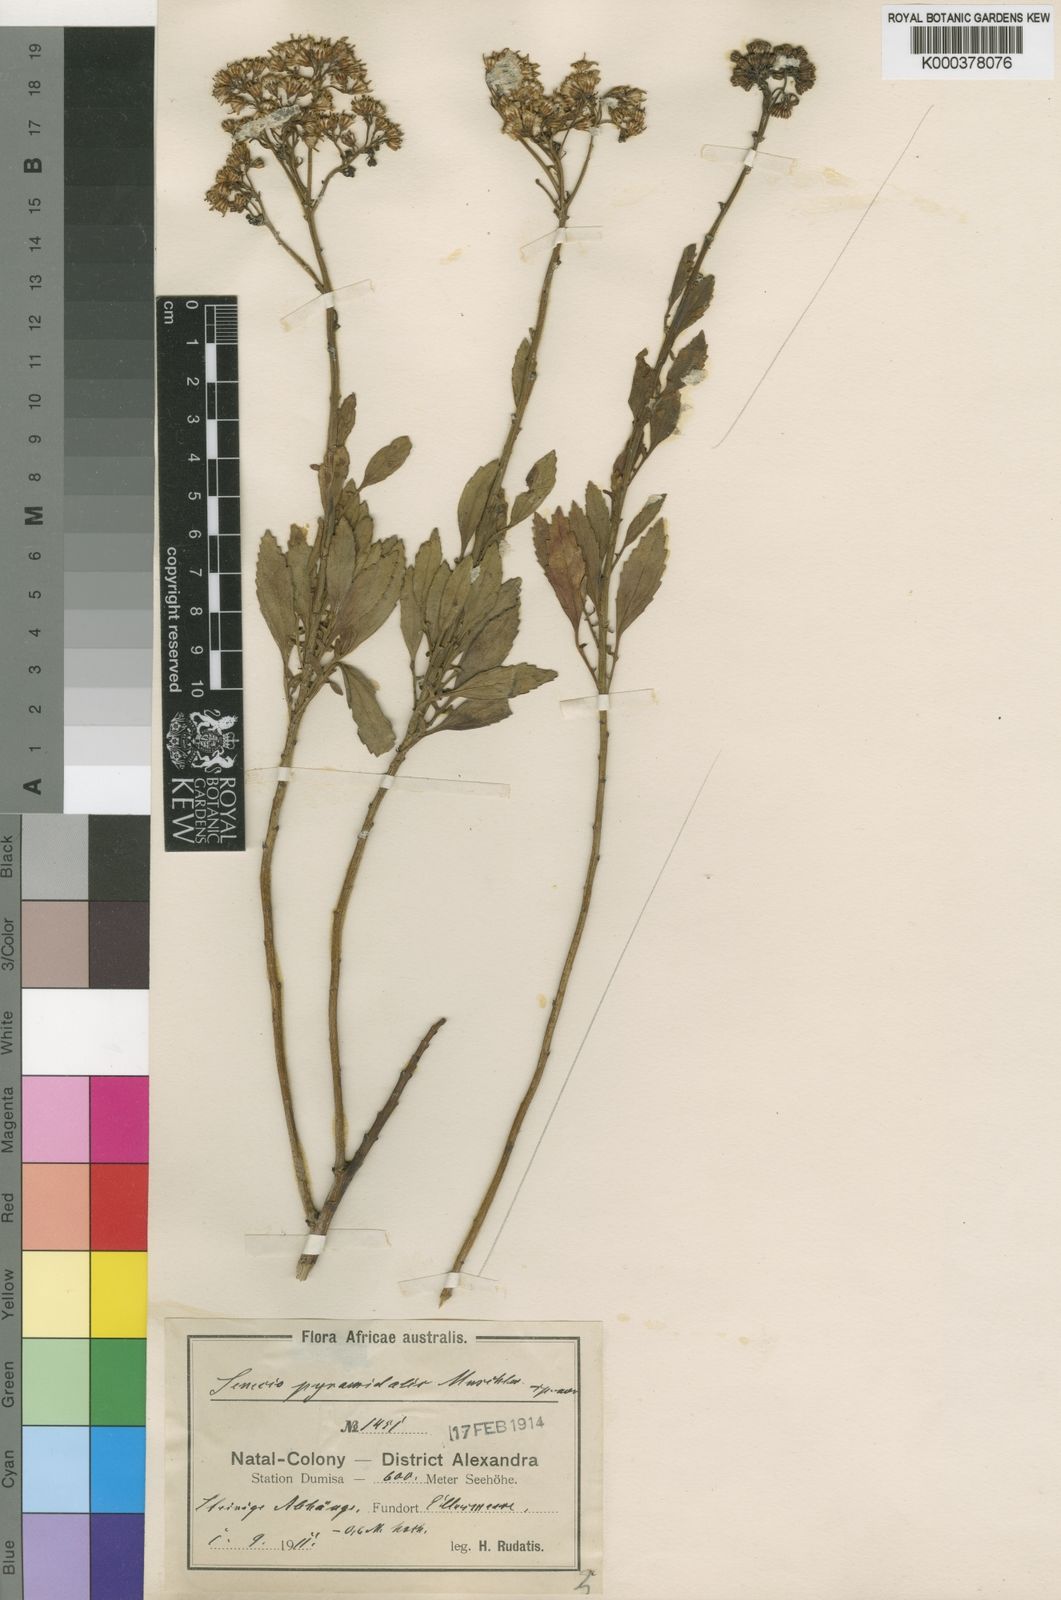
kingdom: Plantae
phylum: Tracheophyta
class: Magnoliopsida
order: Asterales
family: Asteraceae
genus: Senecio
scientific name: Senecio
